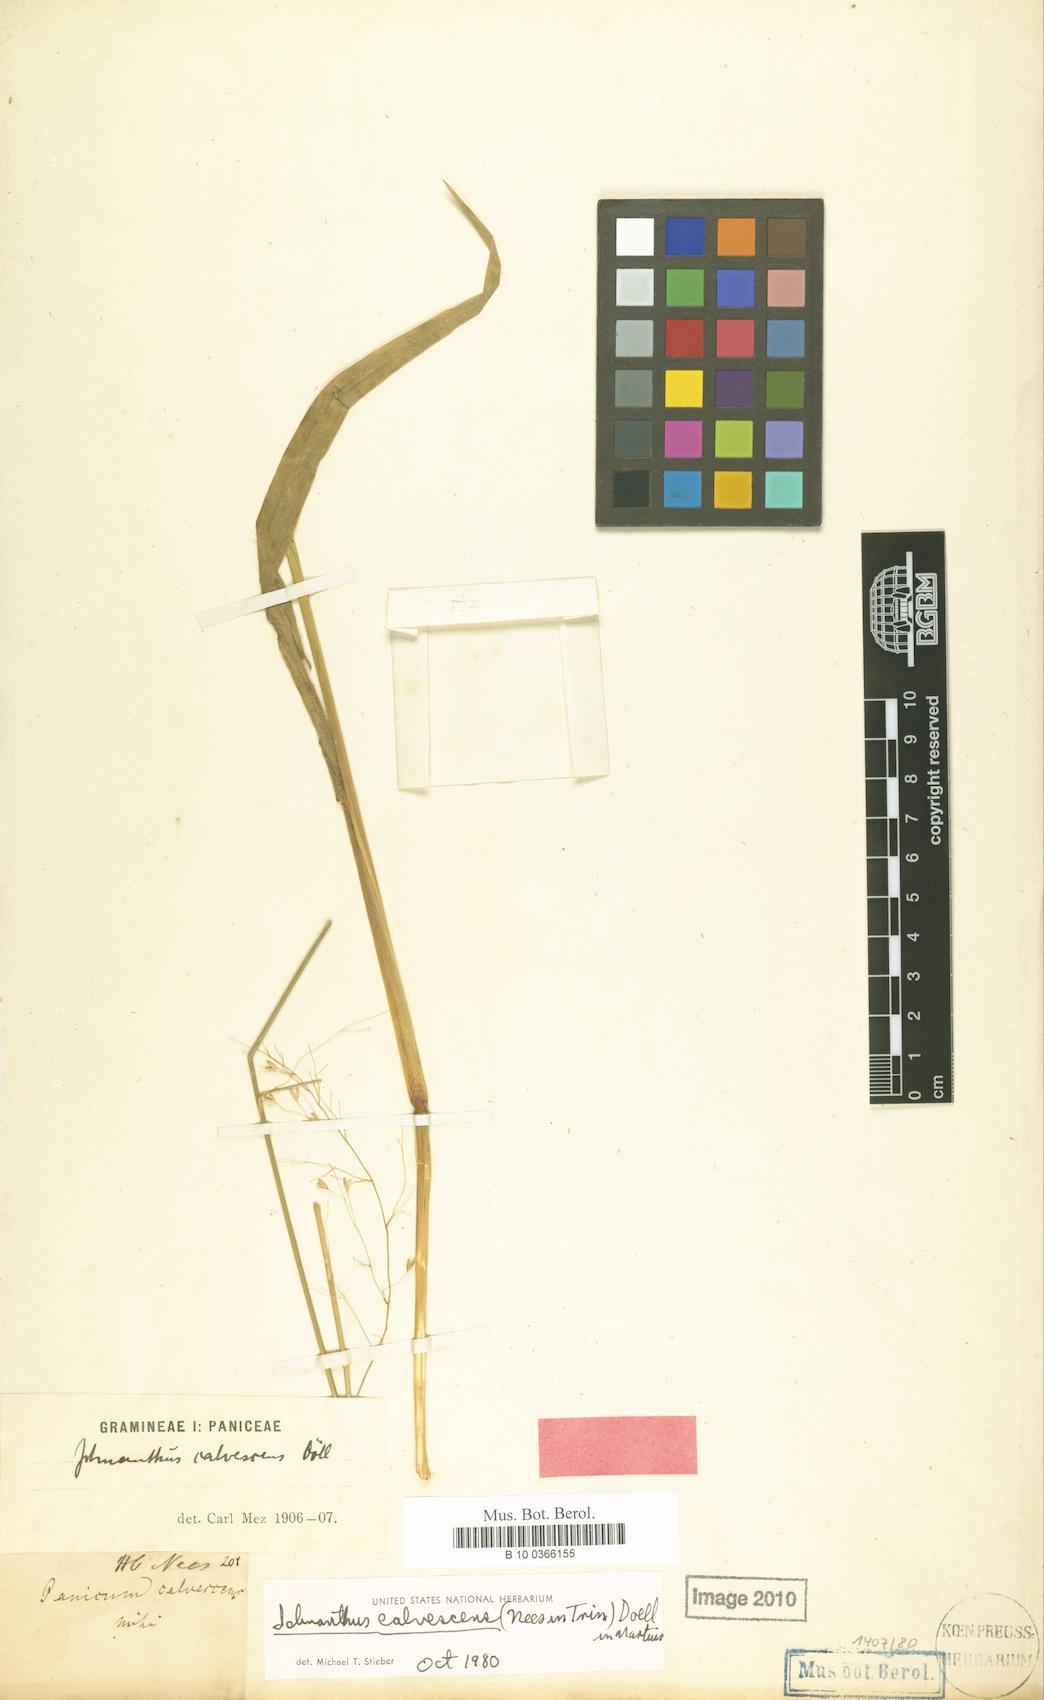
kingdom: Plantae
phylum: Tracheophyta
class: Liliopsida
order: Poales
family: Poaceae
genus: Ichnanthus
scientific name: Ichnanthus calvescens
